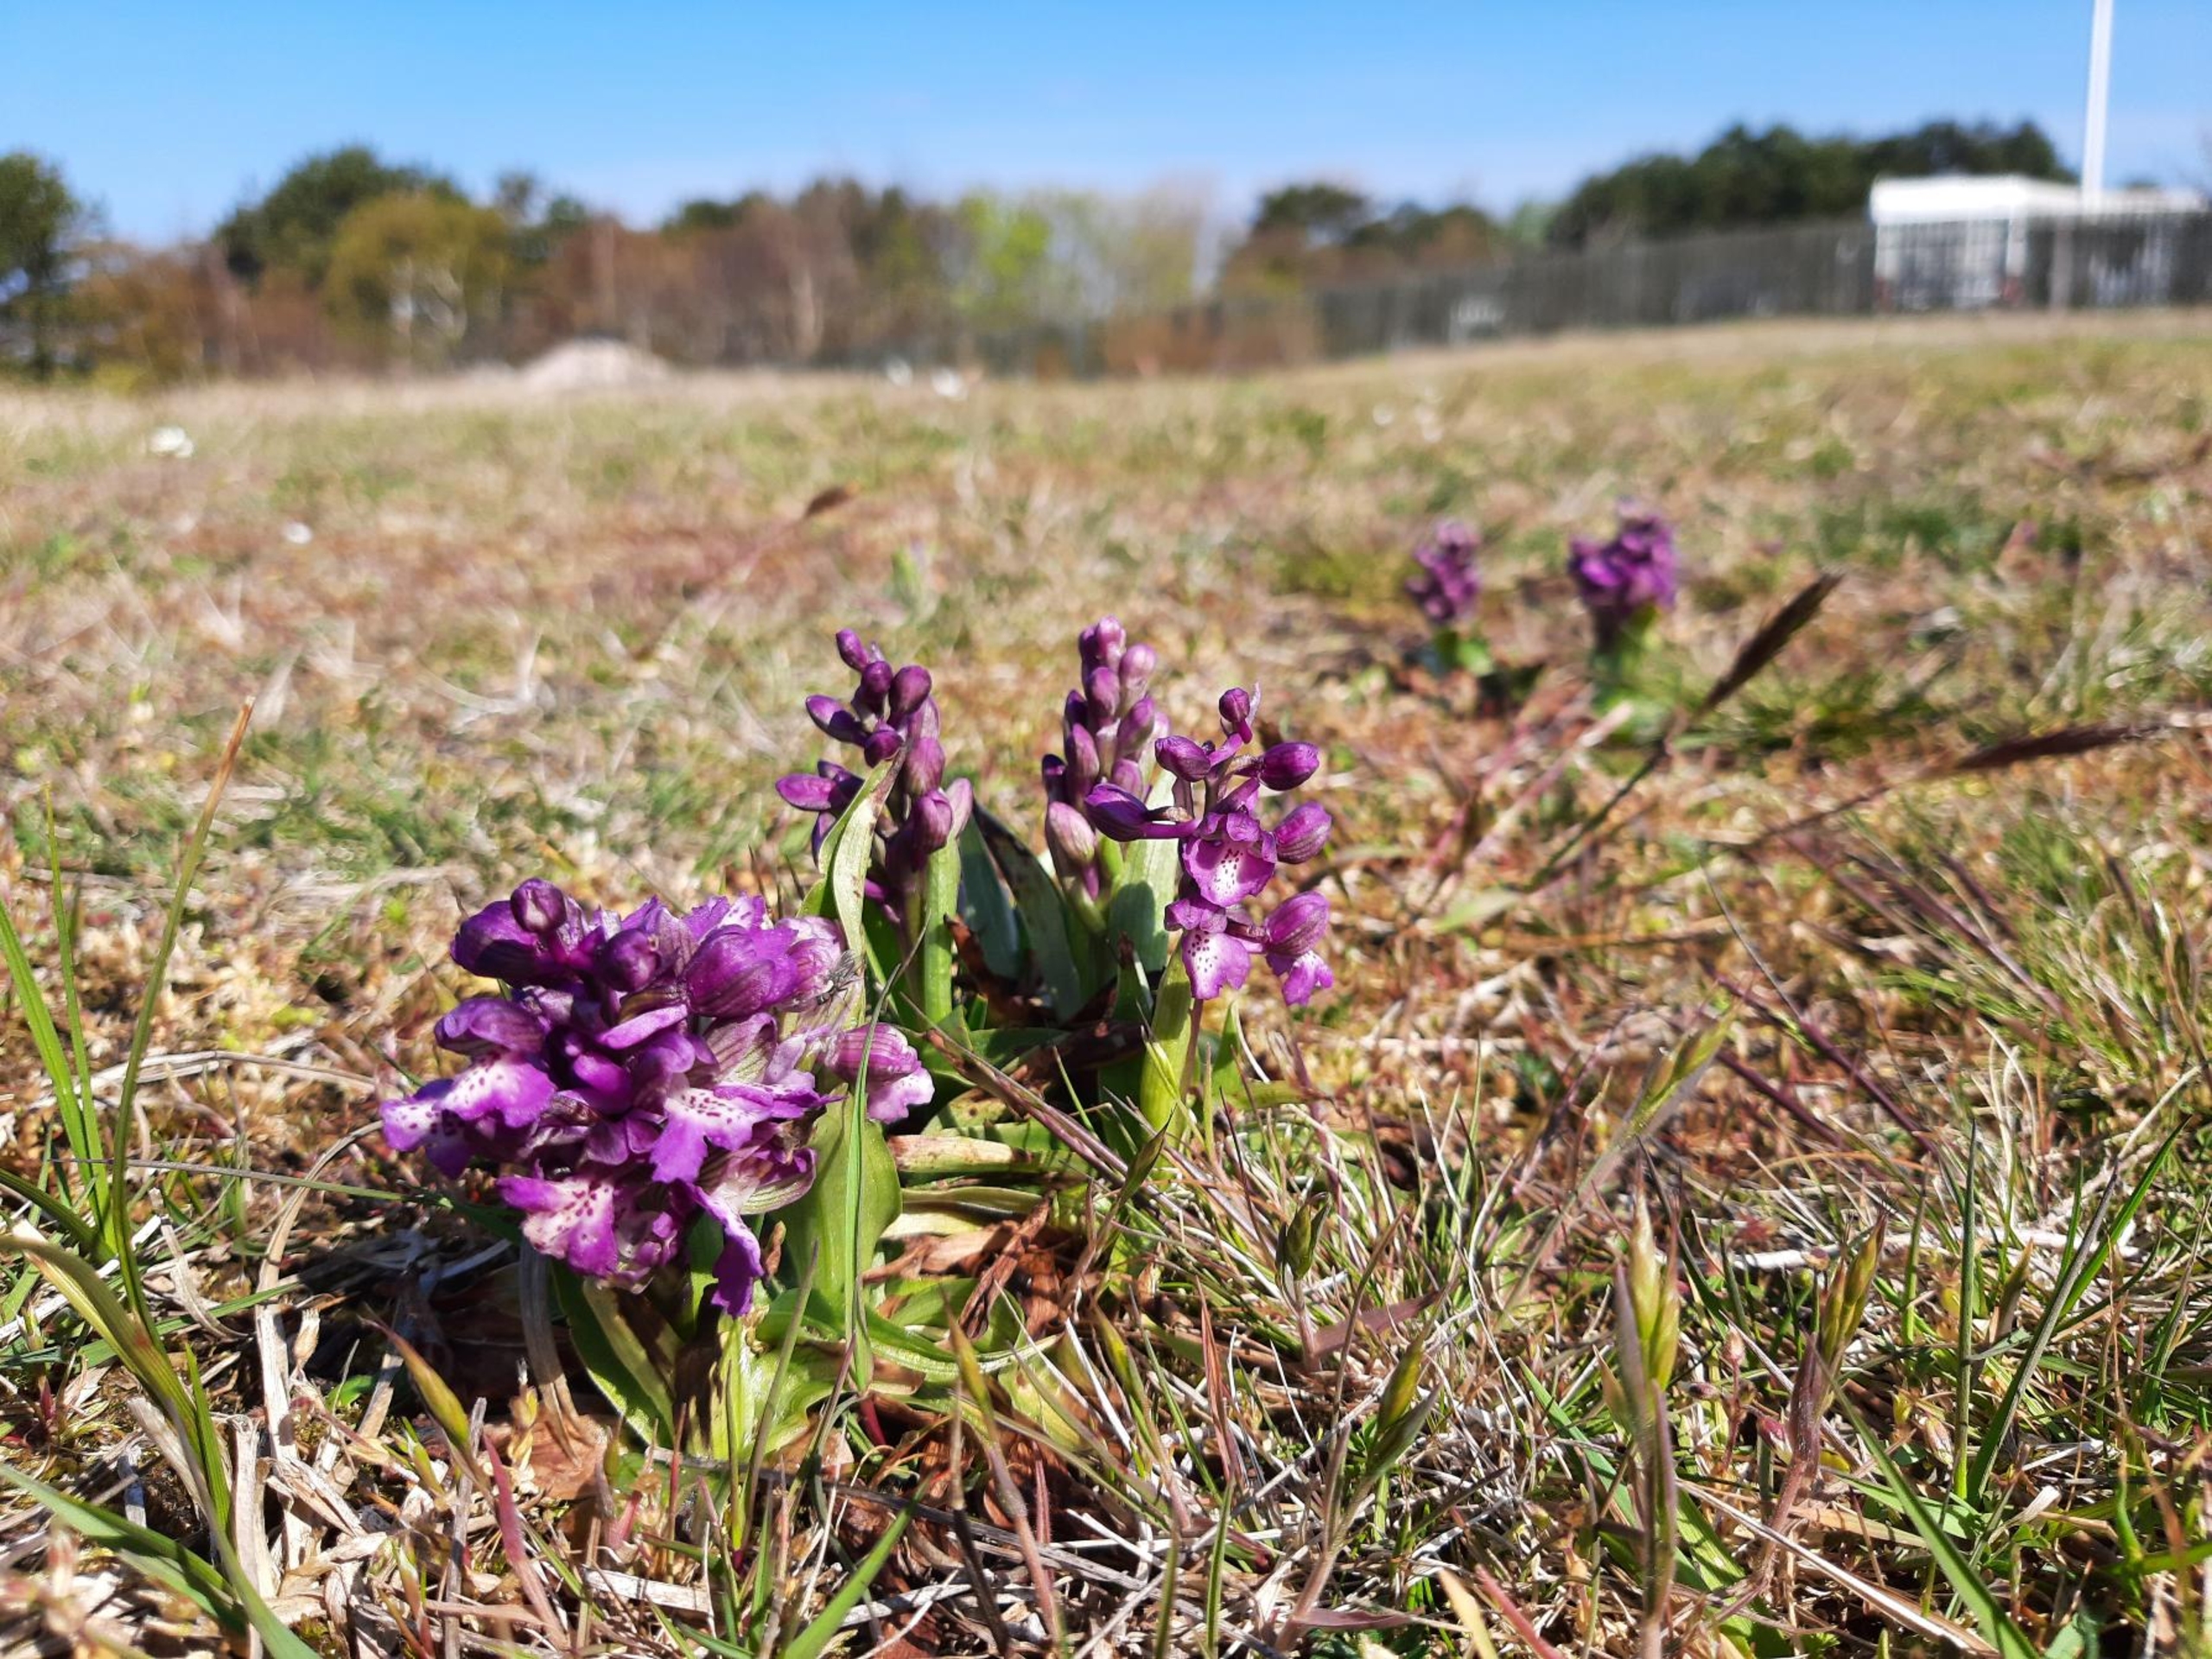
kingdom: Plantae
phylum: Tracheophyta
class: Liliopsida
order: Asparagales
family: Orchidaceae
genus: Anacamptis
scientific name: Anacamptis morio
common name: Salepgøgeurt
